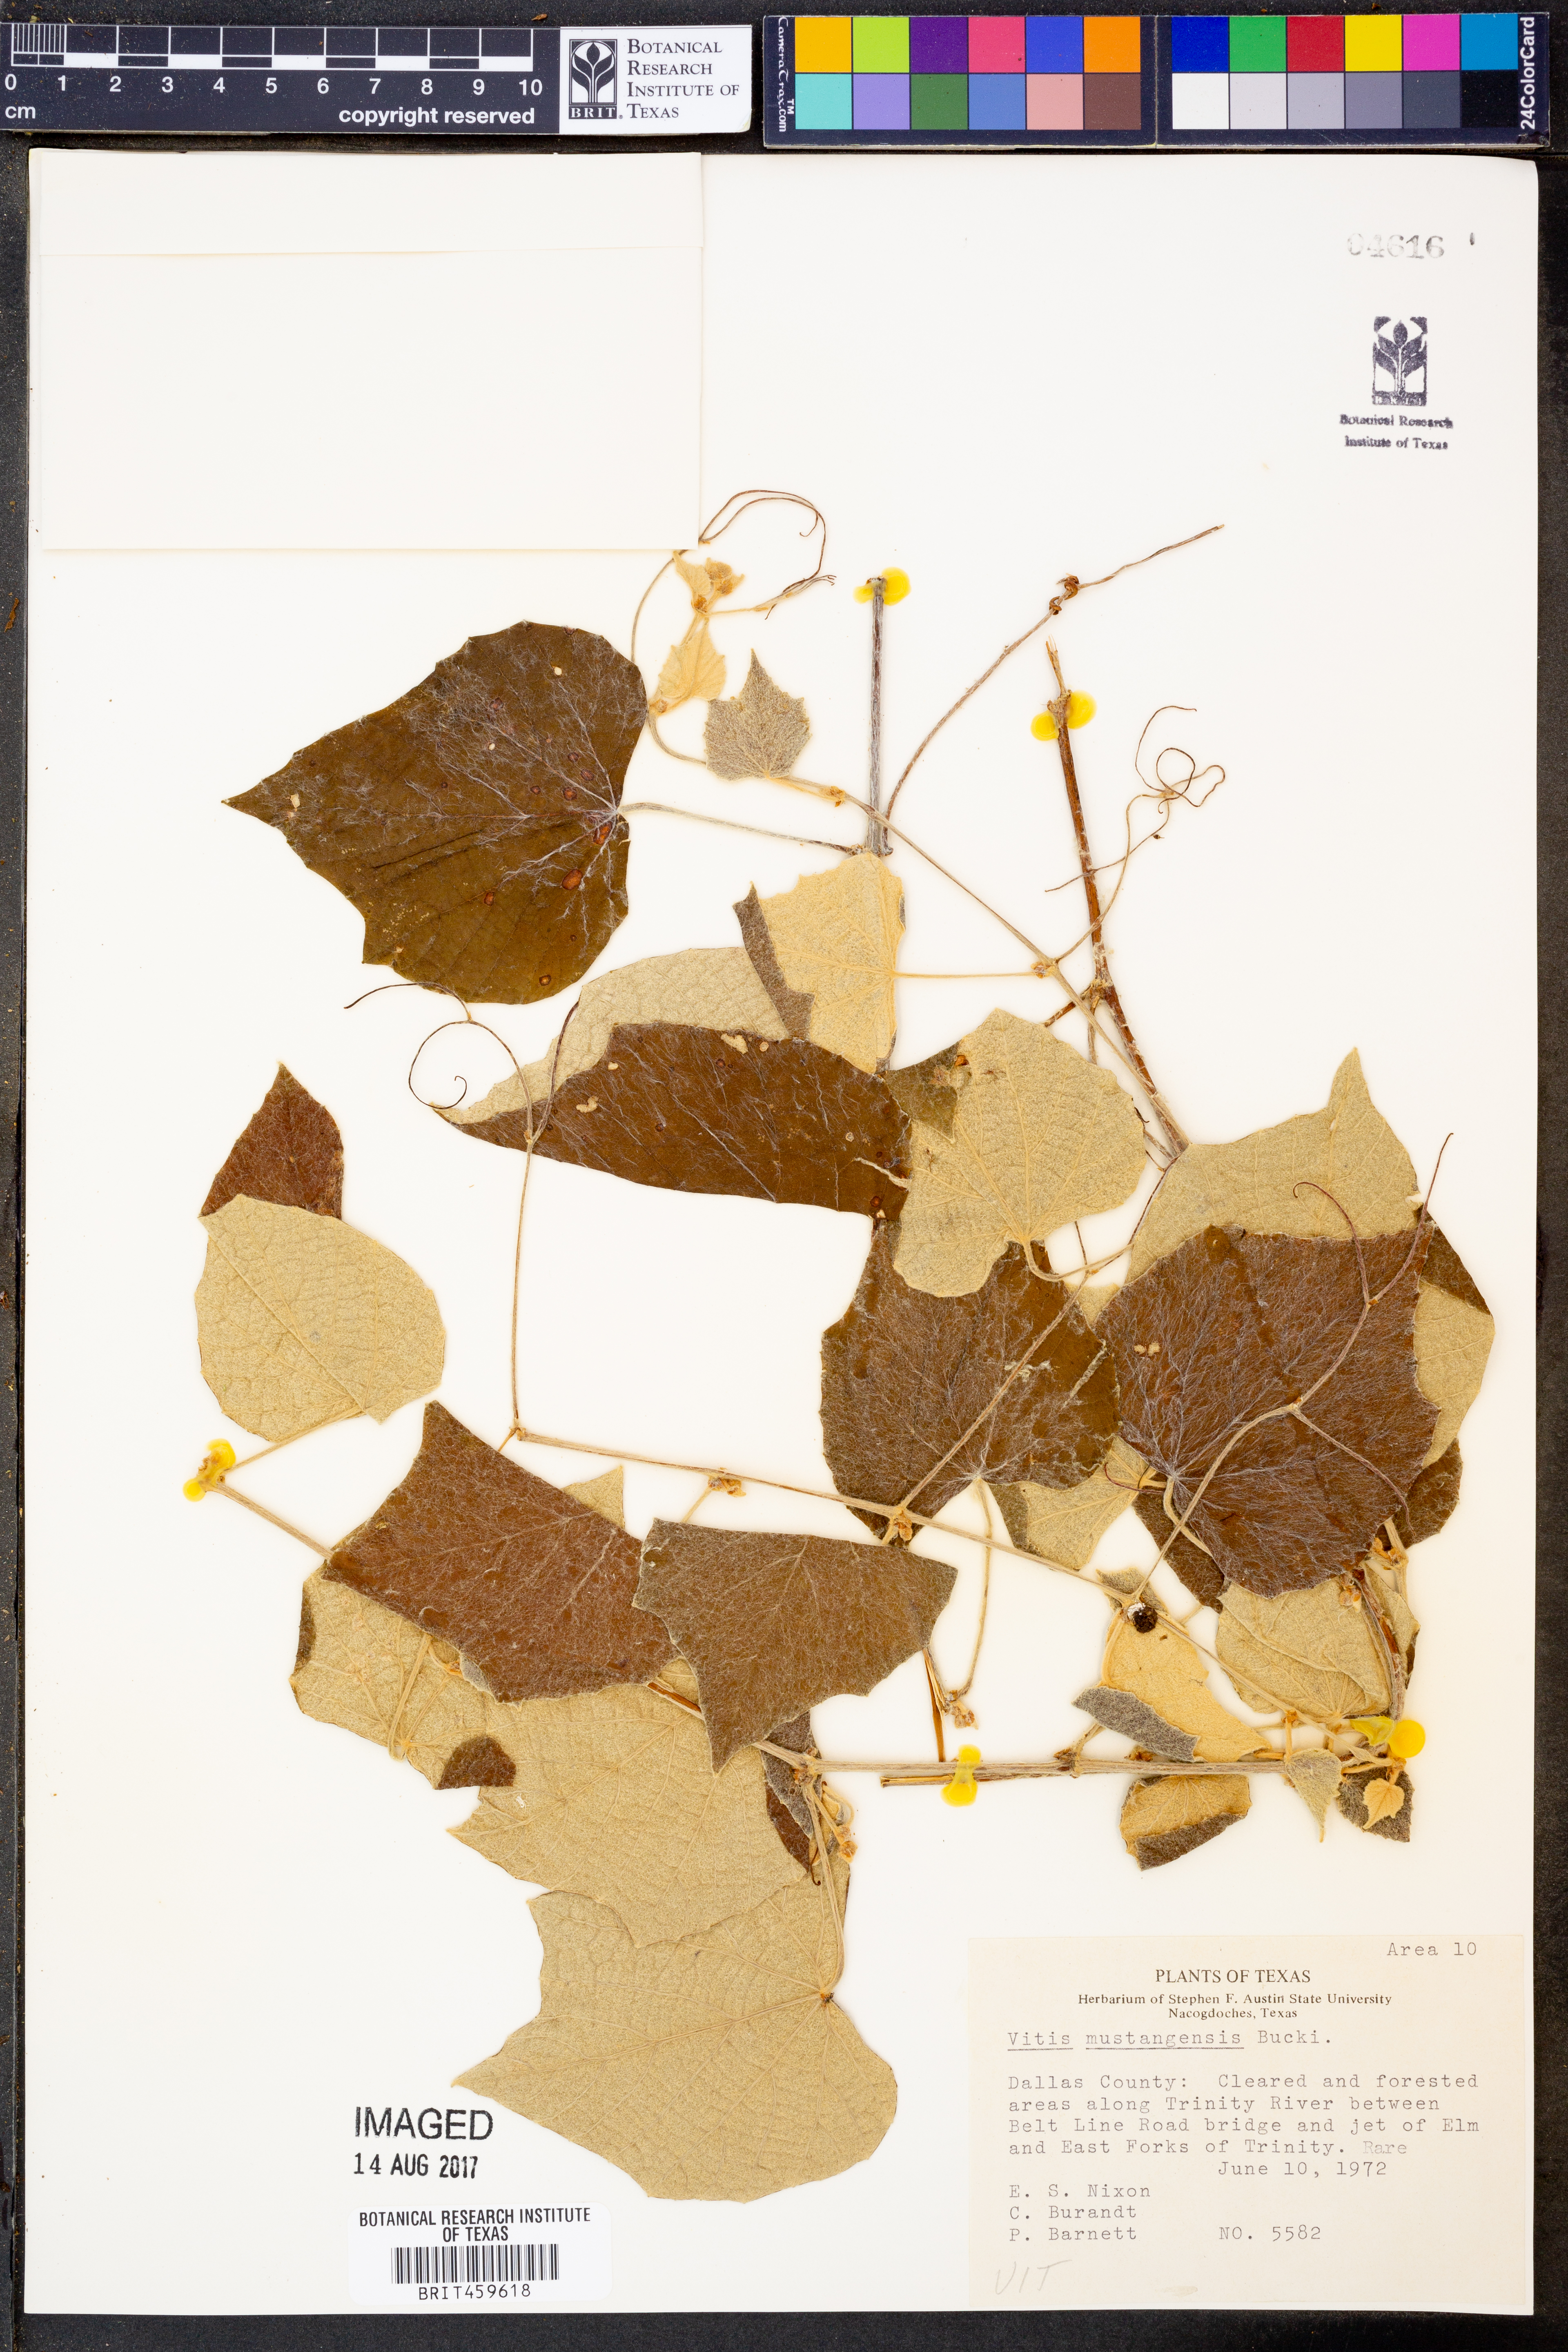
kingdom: Plantae
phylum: Tracheophyta
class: Magnoliopsida
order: Vitales
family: Vitaceae
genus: Vitis
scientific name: Vitis mustangensis
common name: Mustang grape
